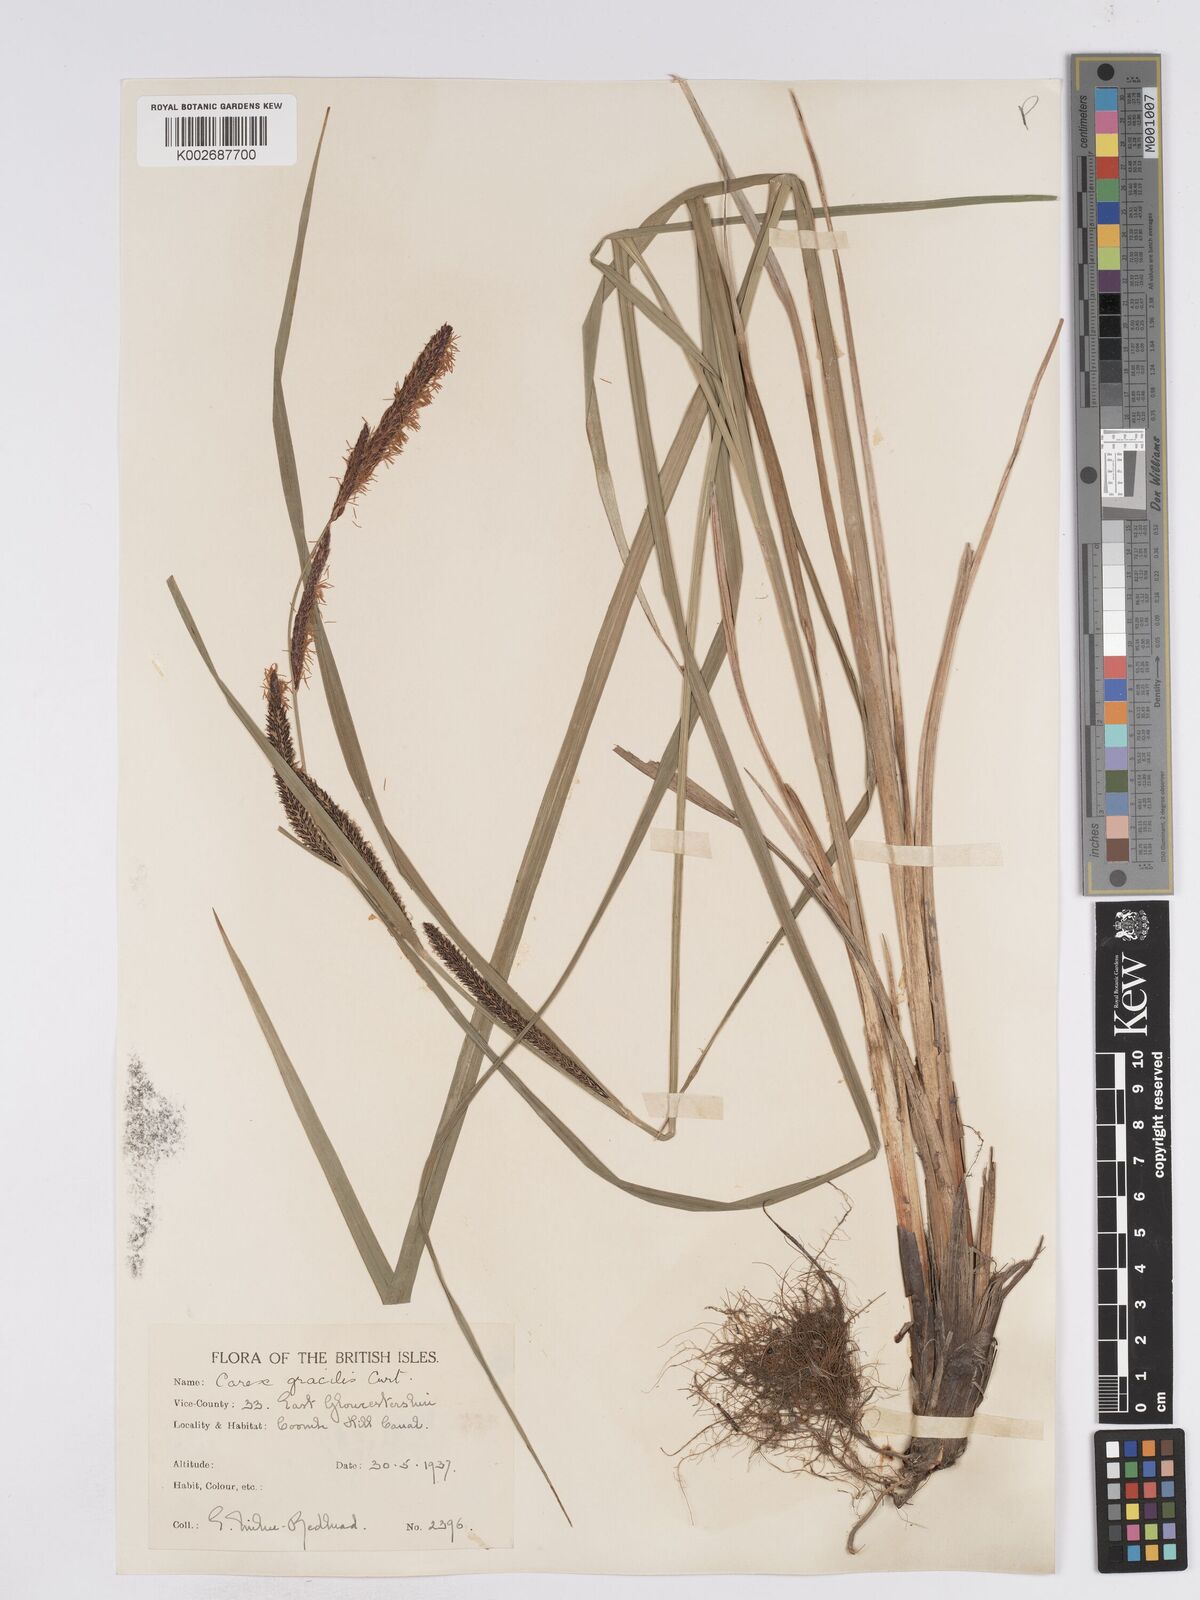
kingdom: Plantae
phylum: Tracheophyta
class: Liliopsida
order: Poales
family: Cyperaceae
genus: Carex
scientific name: Carex acuta
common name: Slender tufted-sedge
